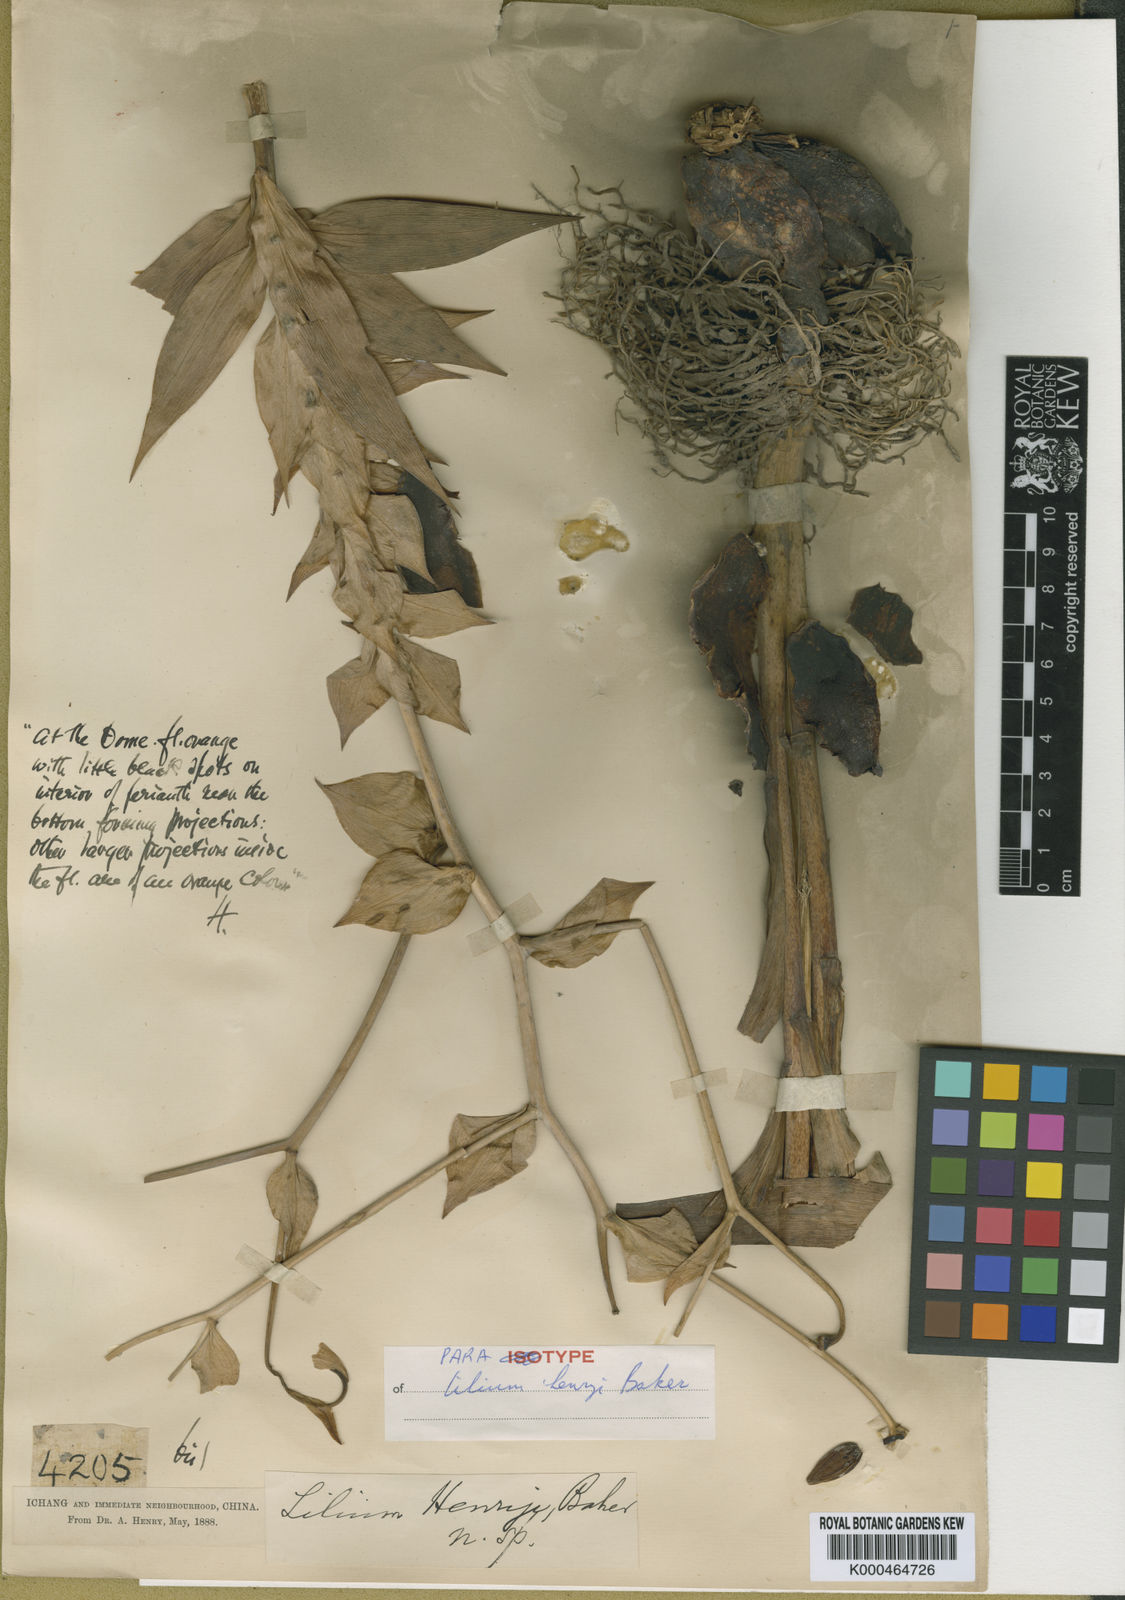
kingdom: Plantae
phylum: Tracheophyta
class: Liliopsida
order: Liliales
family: Liliaceae
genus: Lilium
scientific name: Lilium henryi
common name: Henry's lily
